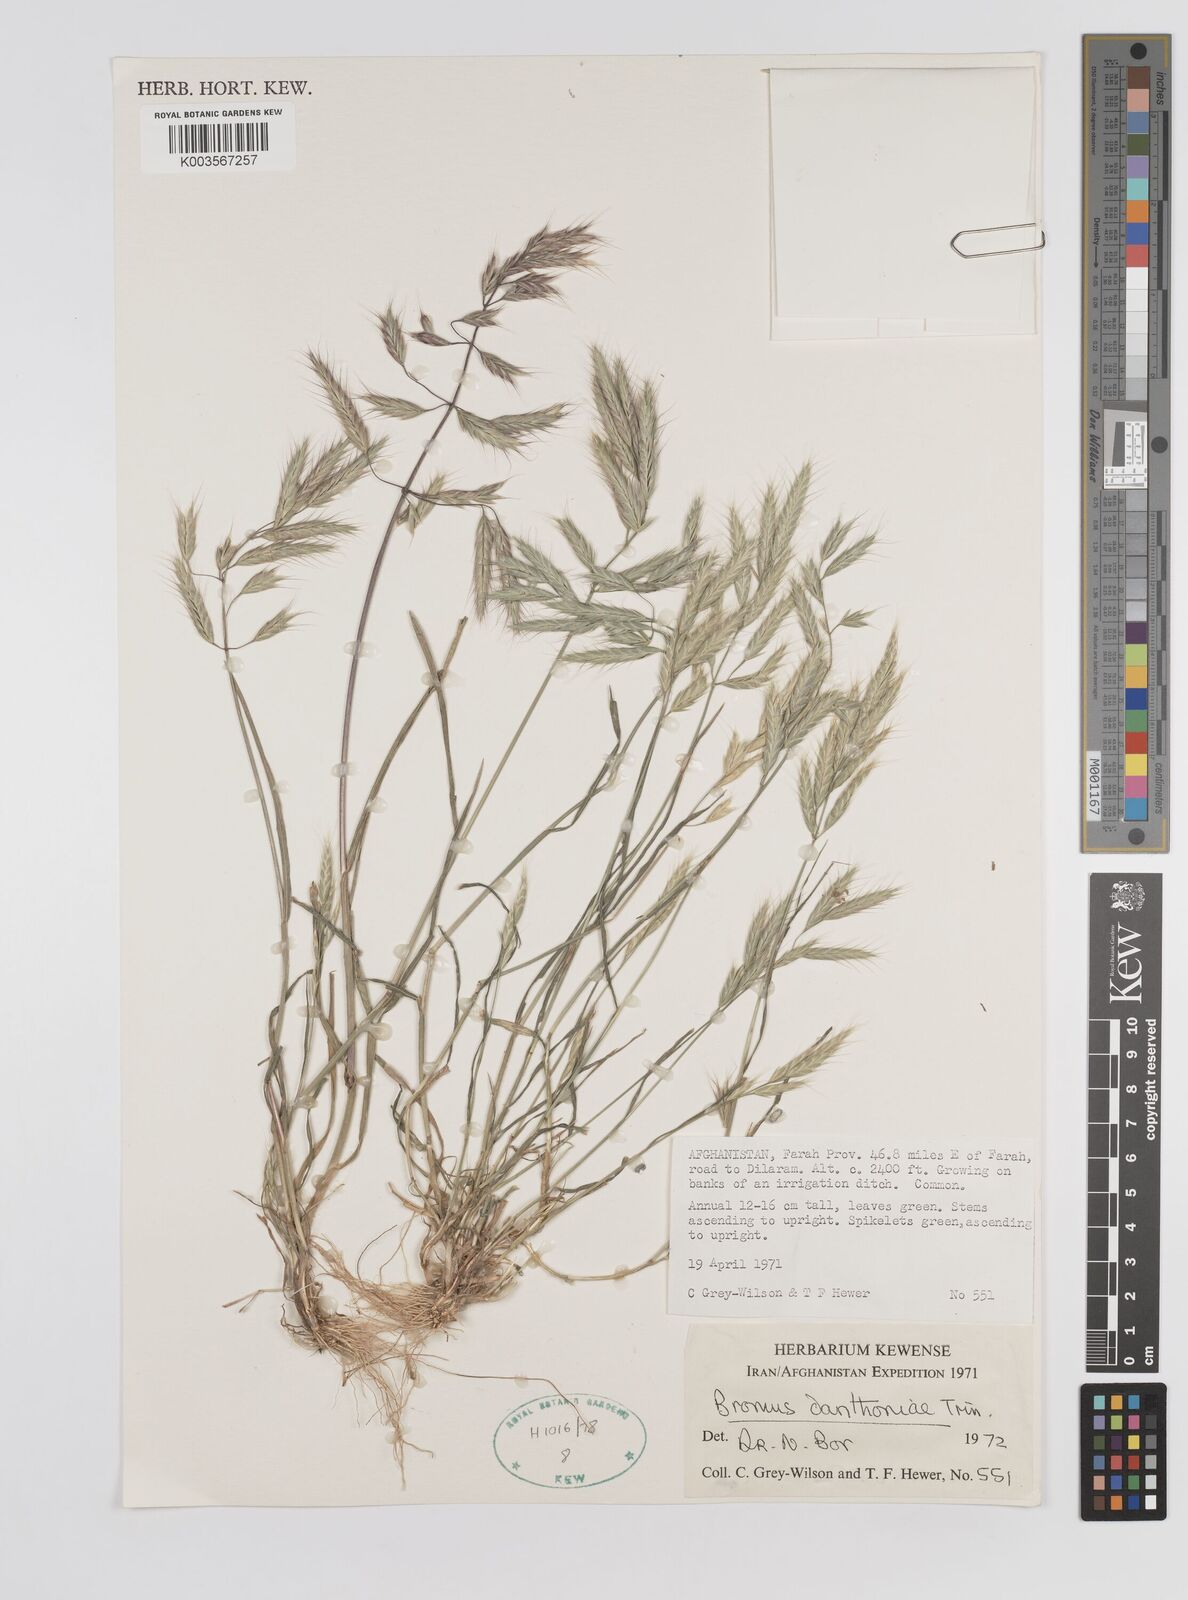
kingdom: Plantae
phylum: Tracheophyta
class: Liliopsida
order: Poales
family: Poaceae
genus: Bromus
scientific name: Bromus danthoniae
